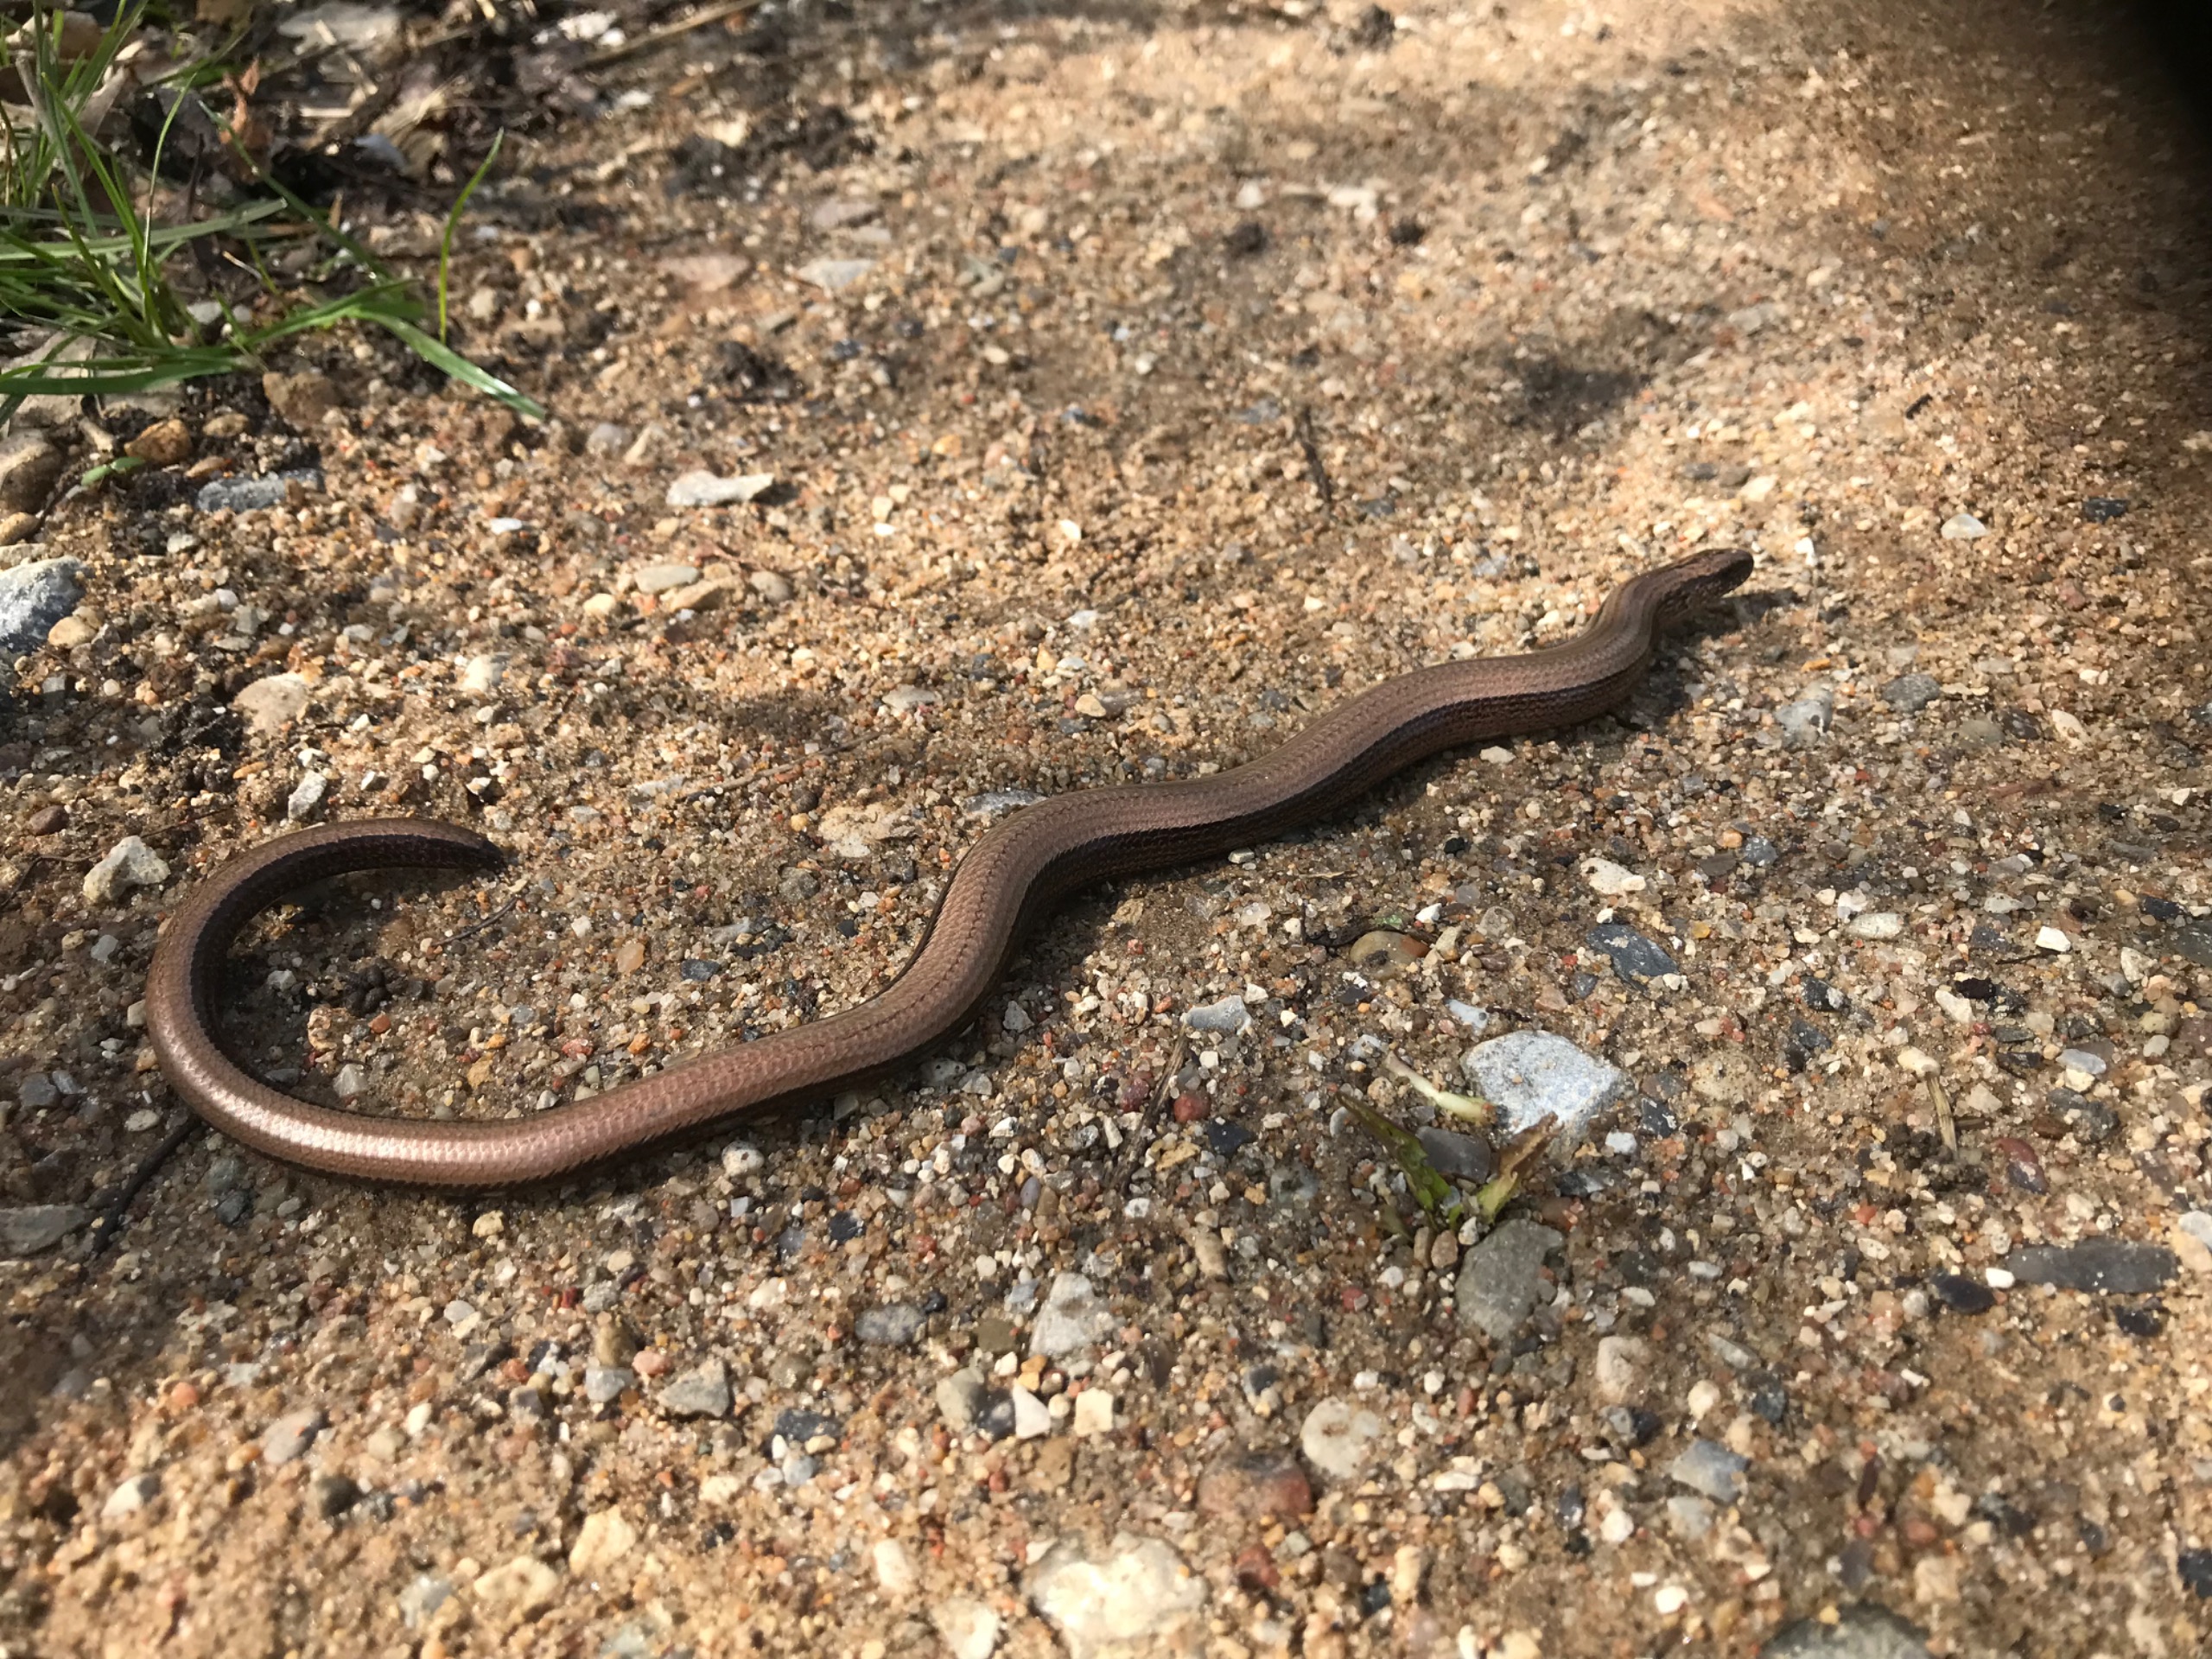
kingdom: Animalia
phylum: Chordata
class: Squamata
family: Anguidae
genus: Anguis
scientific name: Anguis fragilis
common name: Stålorm
